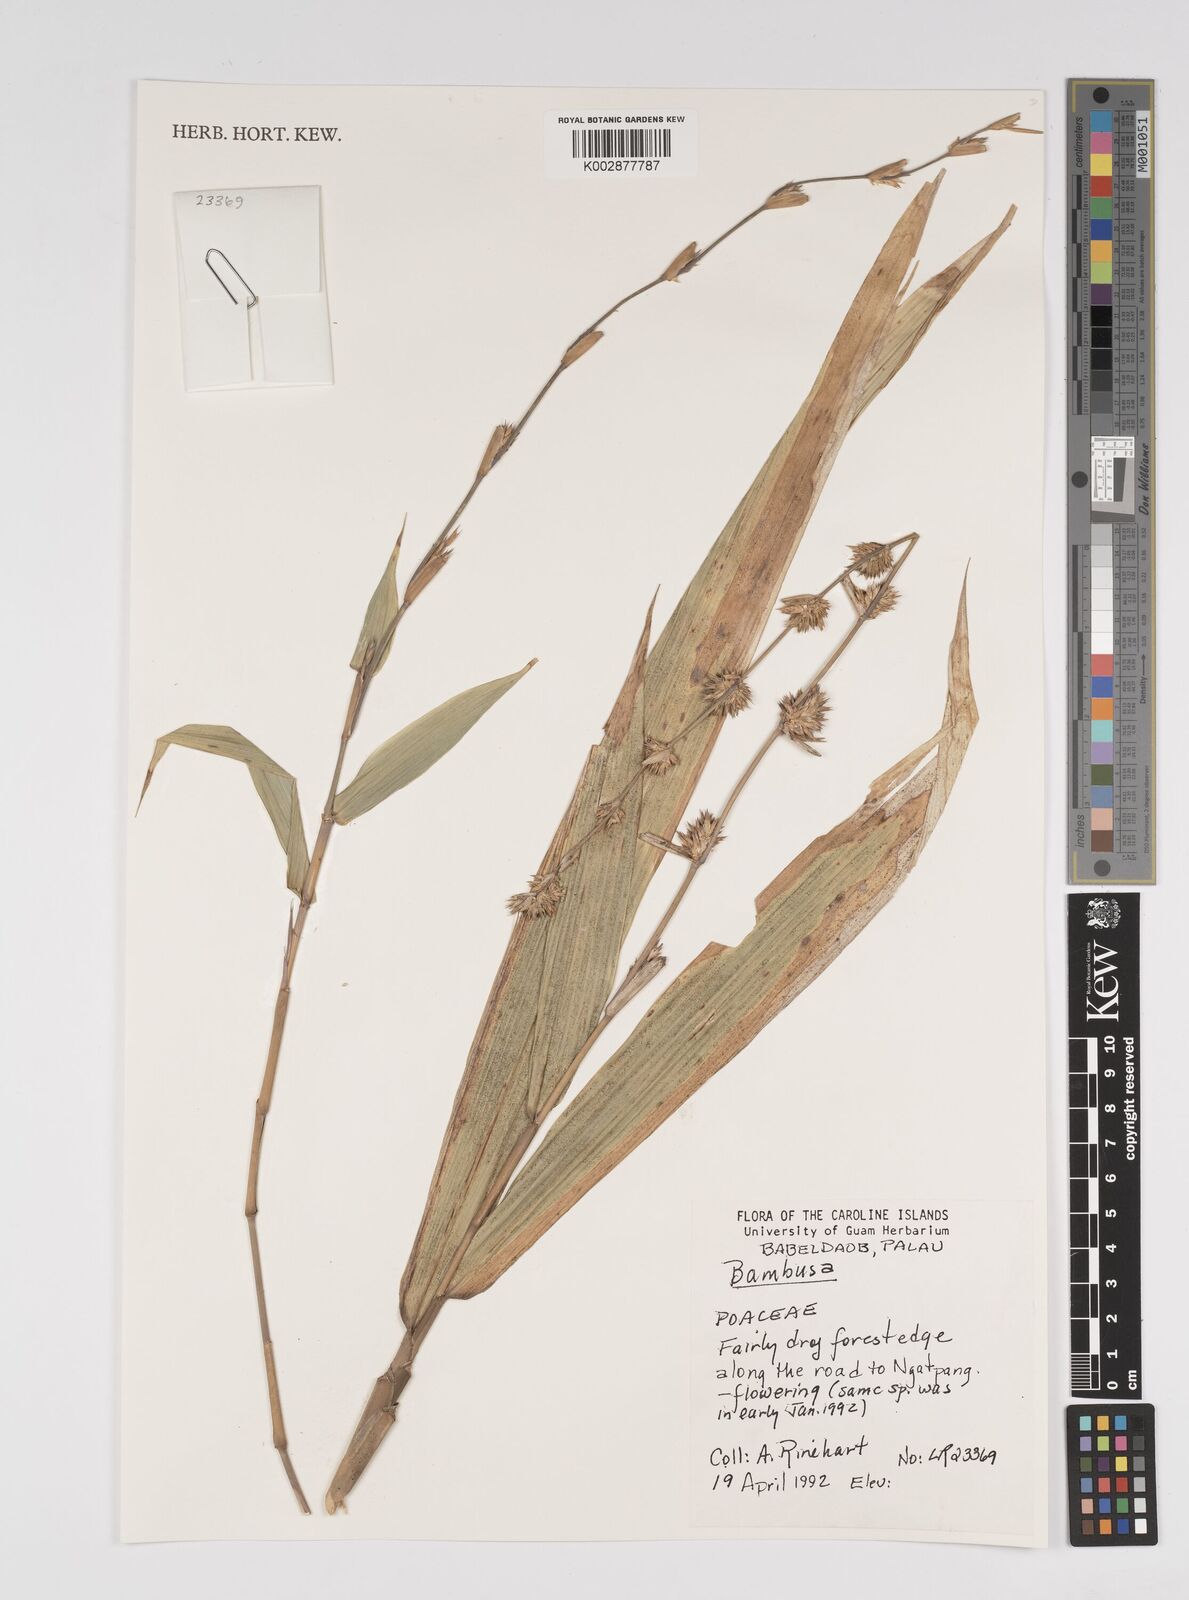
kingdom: Plantae
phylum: Tracheophyta
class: Liliopsida
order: Poales
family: Poaceae
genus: Bambusa
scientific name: Bambusa
